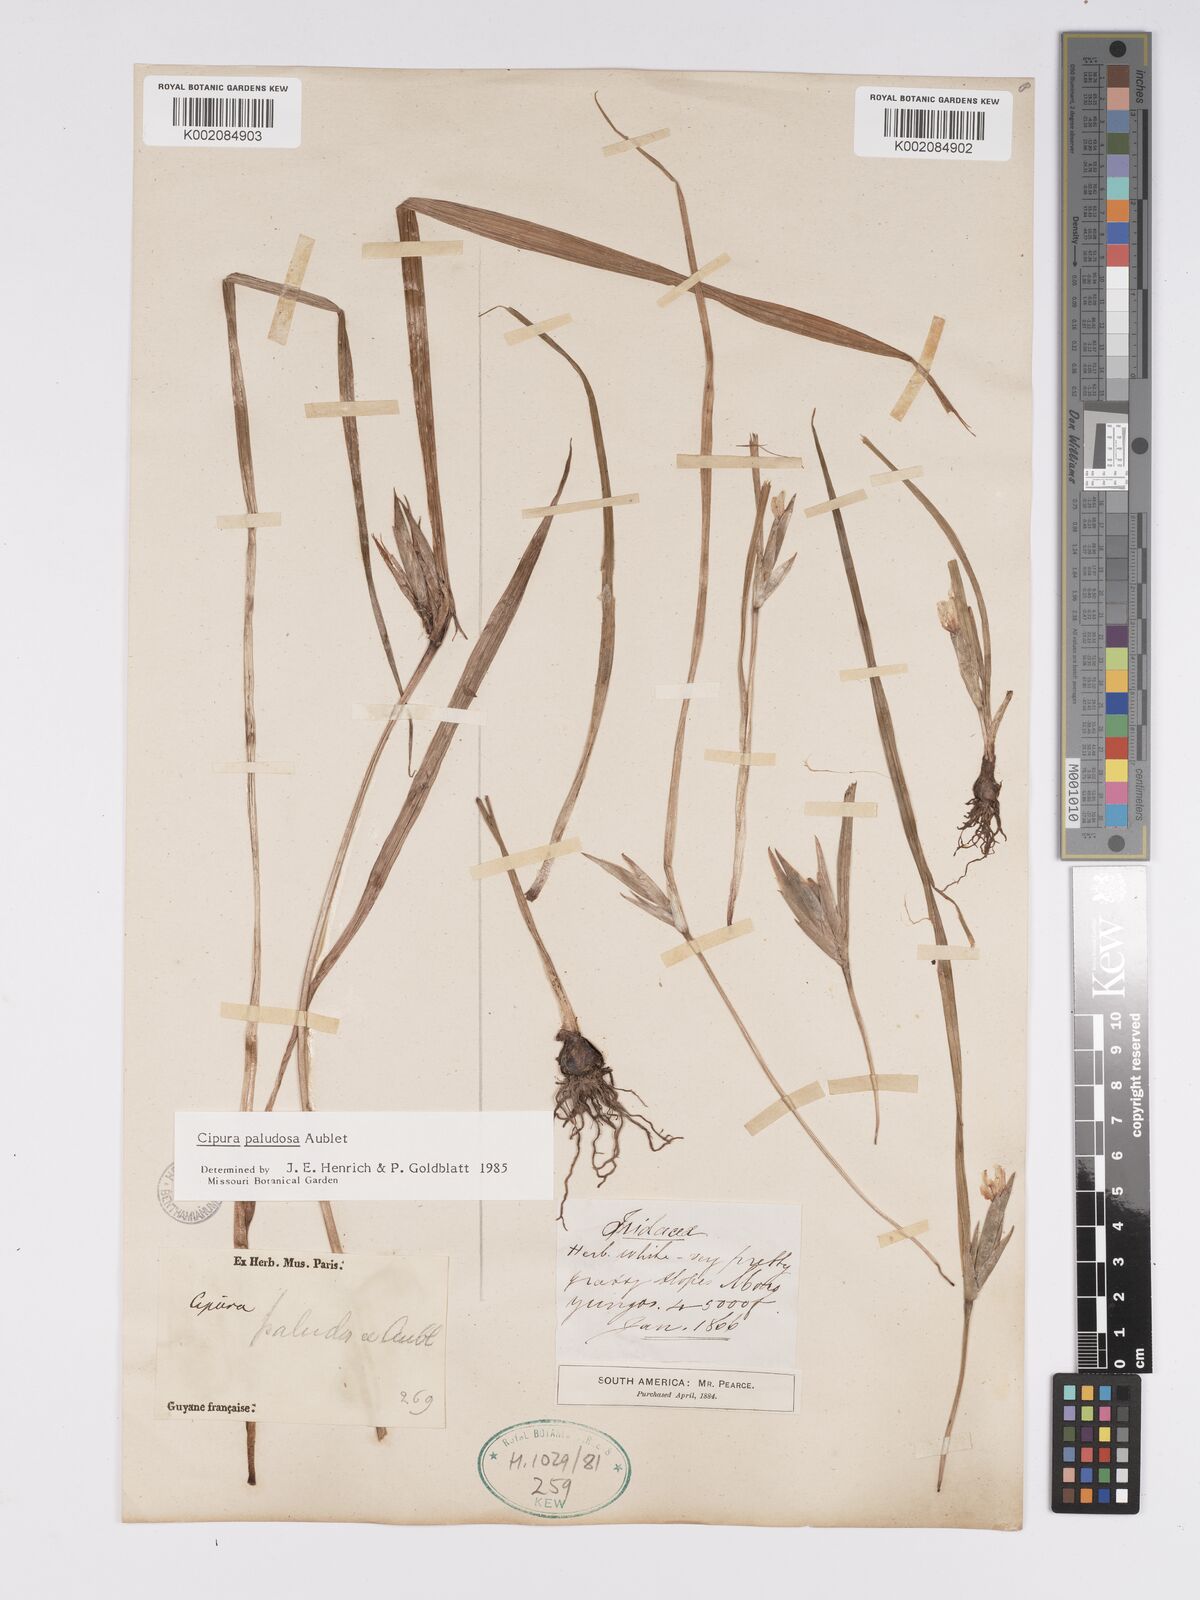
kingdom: Plantae
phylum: Tracheophyta
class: Liliopsida
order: Asparagales
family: Iridaceae
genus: Cipura
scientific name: Cipura paludosa
